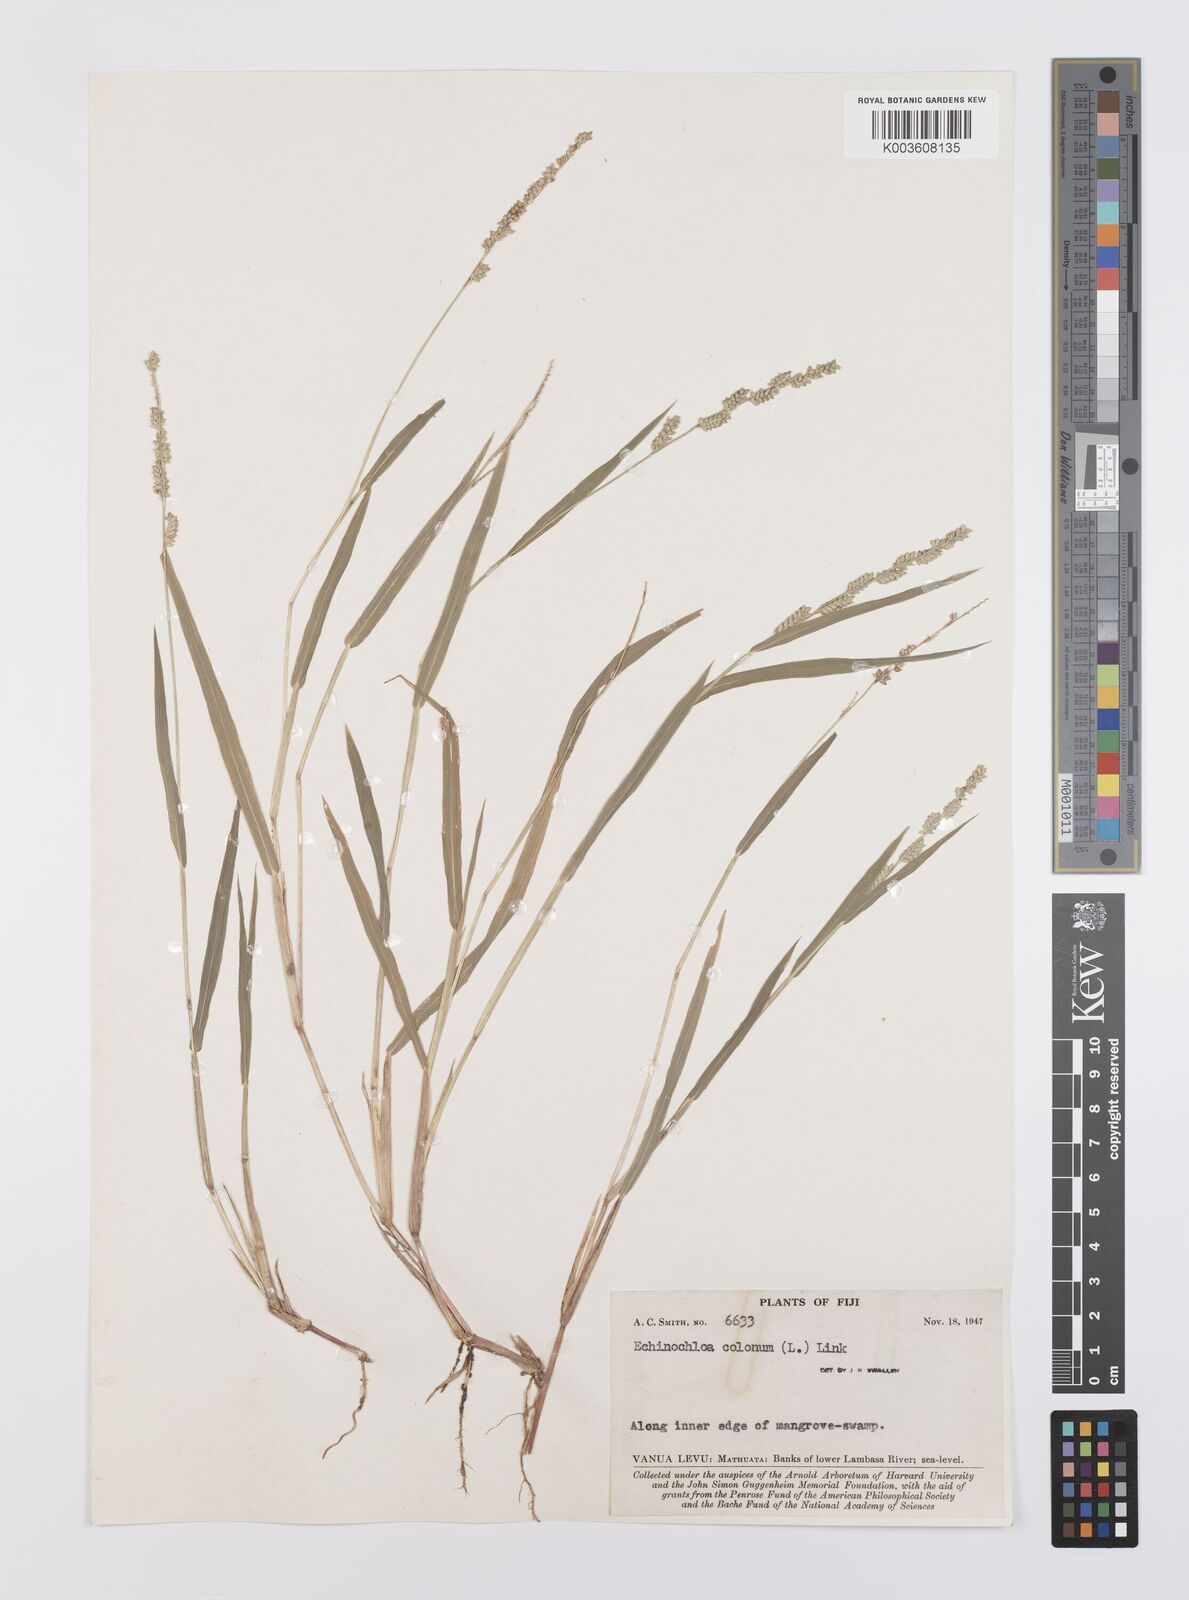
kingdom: Plantae
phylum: Tracheophyta
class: Liliopsida
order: Poales
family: Poaceae
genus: Echinochloa
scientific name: Echinochloa colonum
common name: Jungle rice
